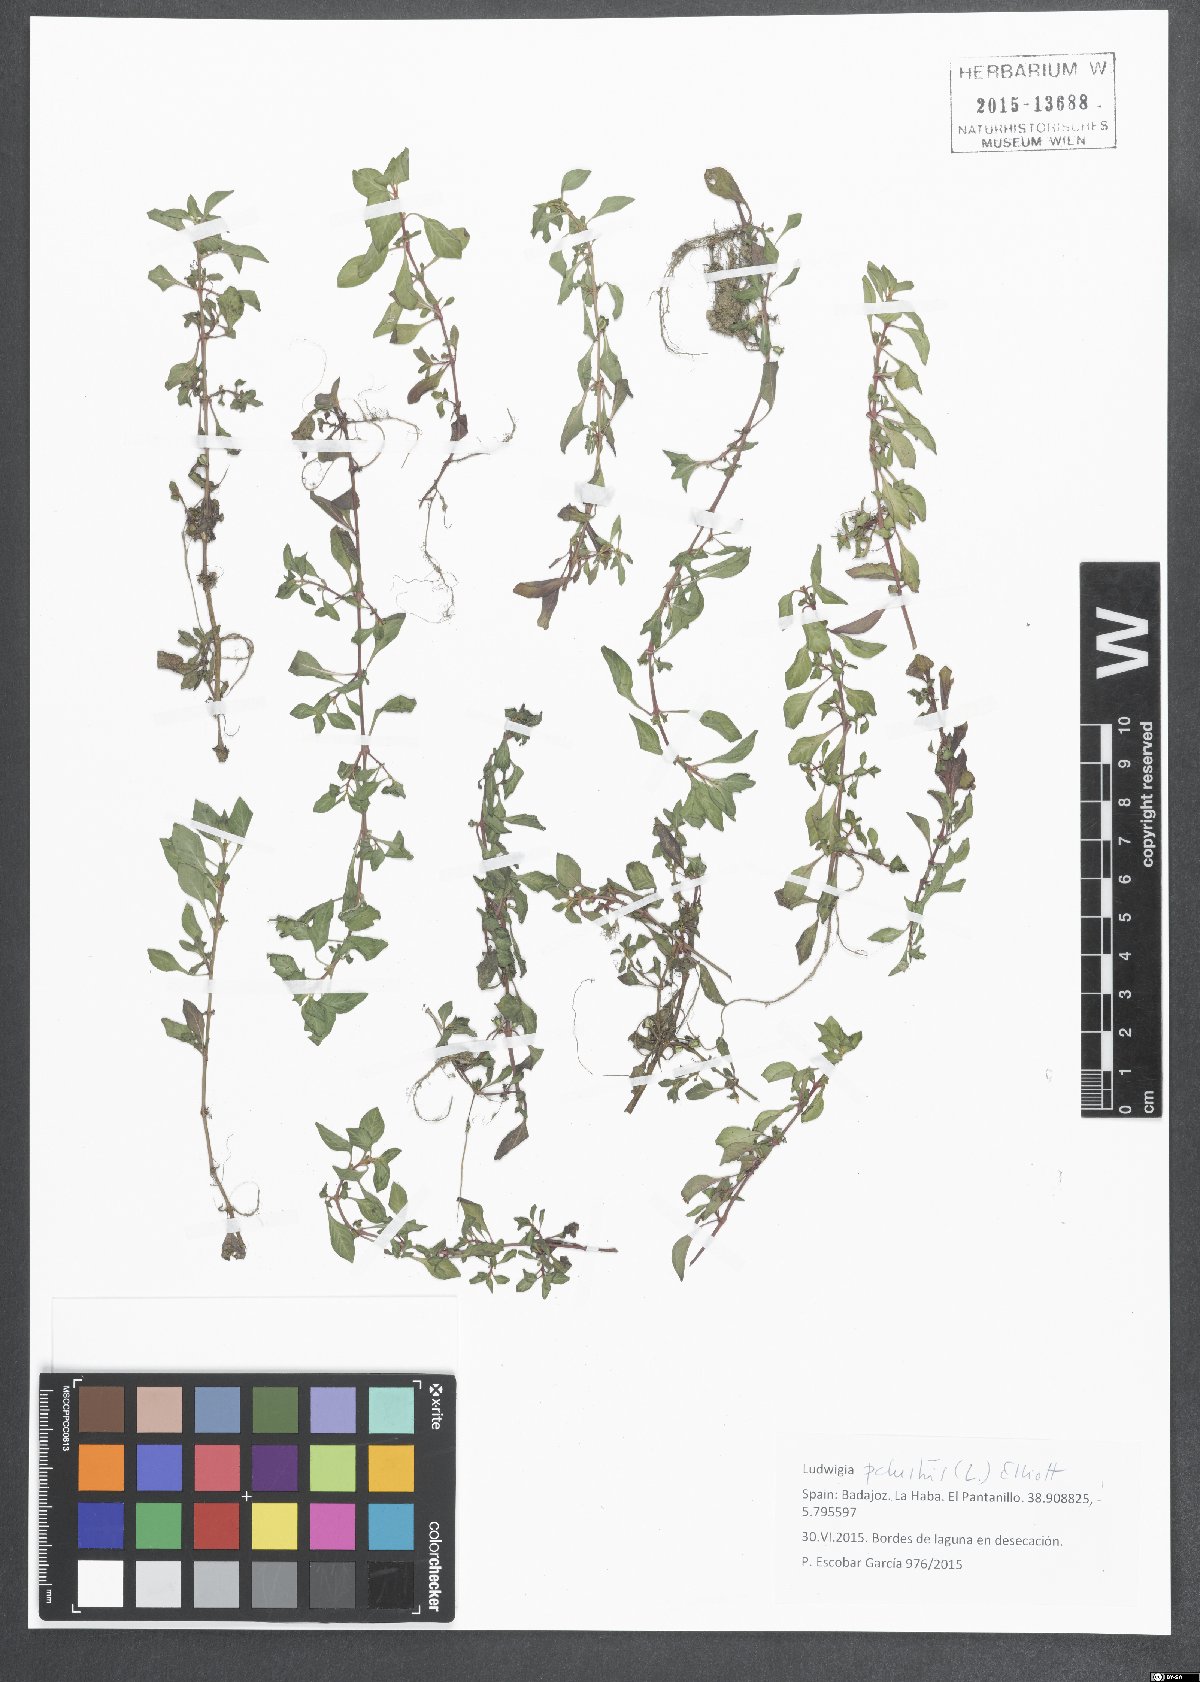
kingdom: Plantae
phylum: Tracheophyta
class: Magnoliopsida
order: Myrtales
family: Onagraceae
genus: Ludwigia
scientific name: Ludwigia palustris
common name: Hampshire-purslane
